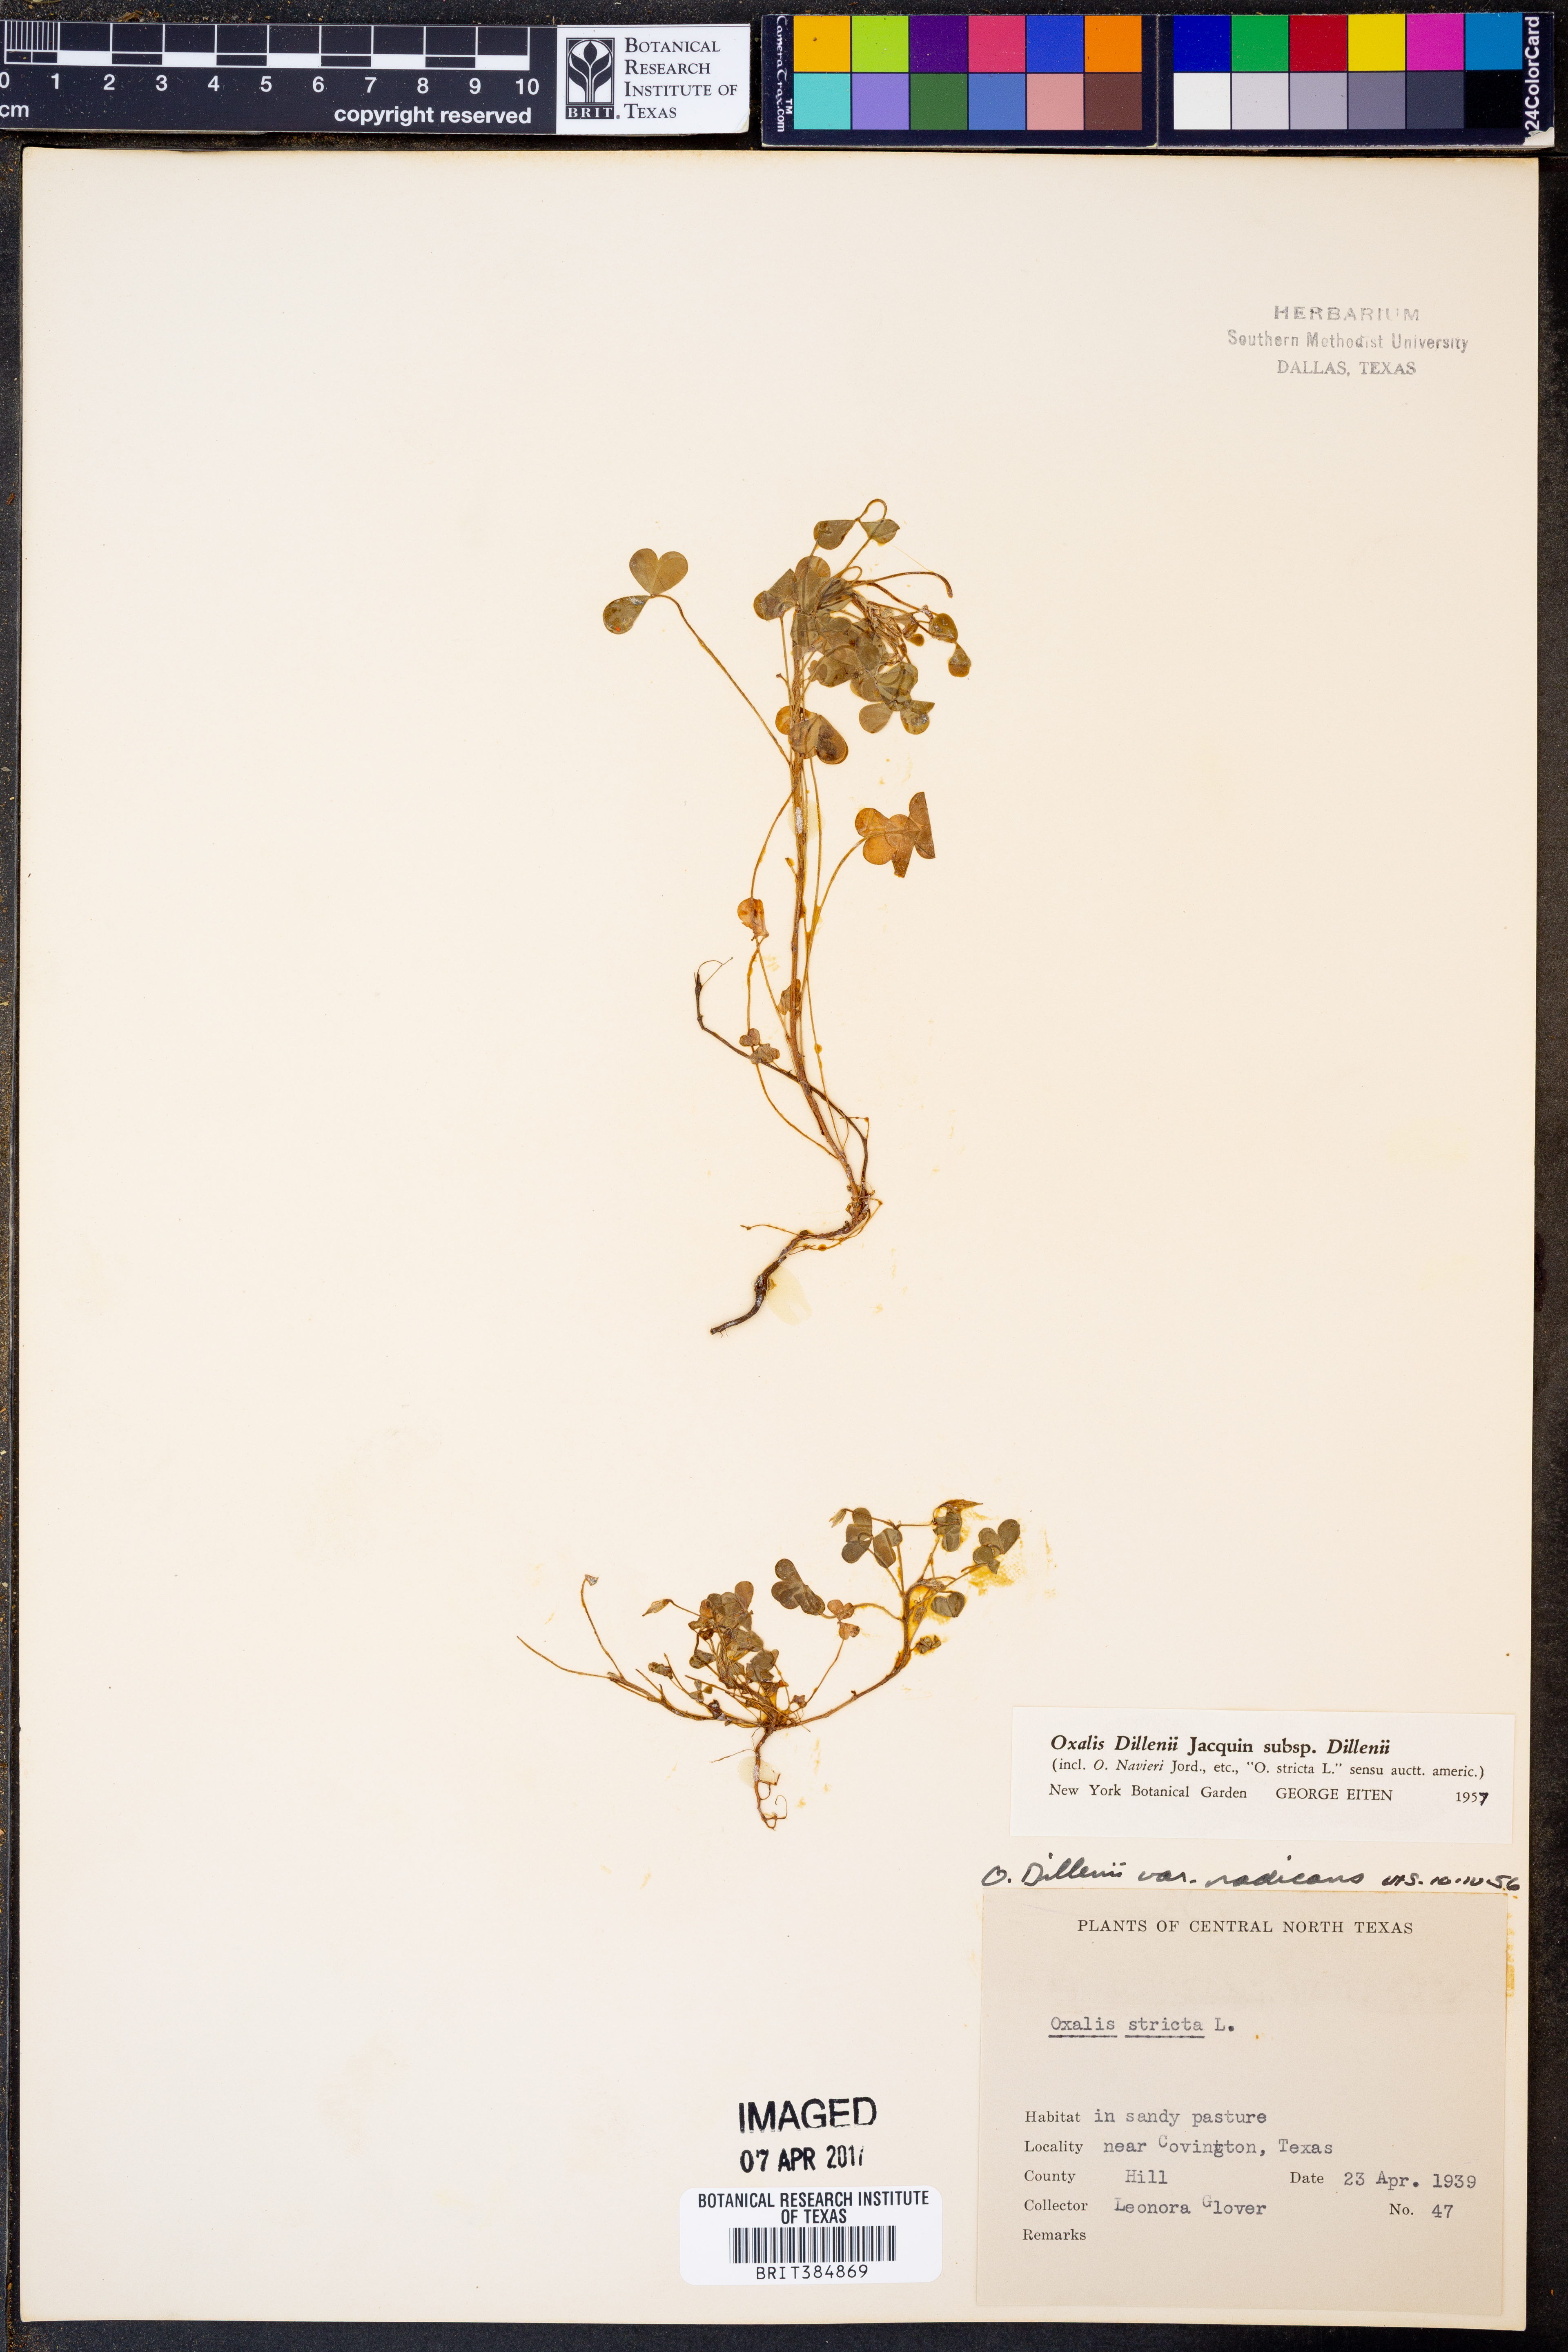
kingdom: Plantae
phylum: Tracheophyta
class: Magnoliopsida
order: Oxalidales
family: Oxalidaceae
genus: Oxalis
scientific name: Oxalis dillenii
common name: Sussex yellow-sorrel
